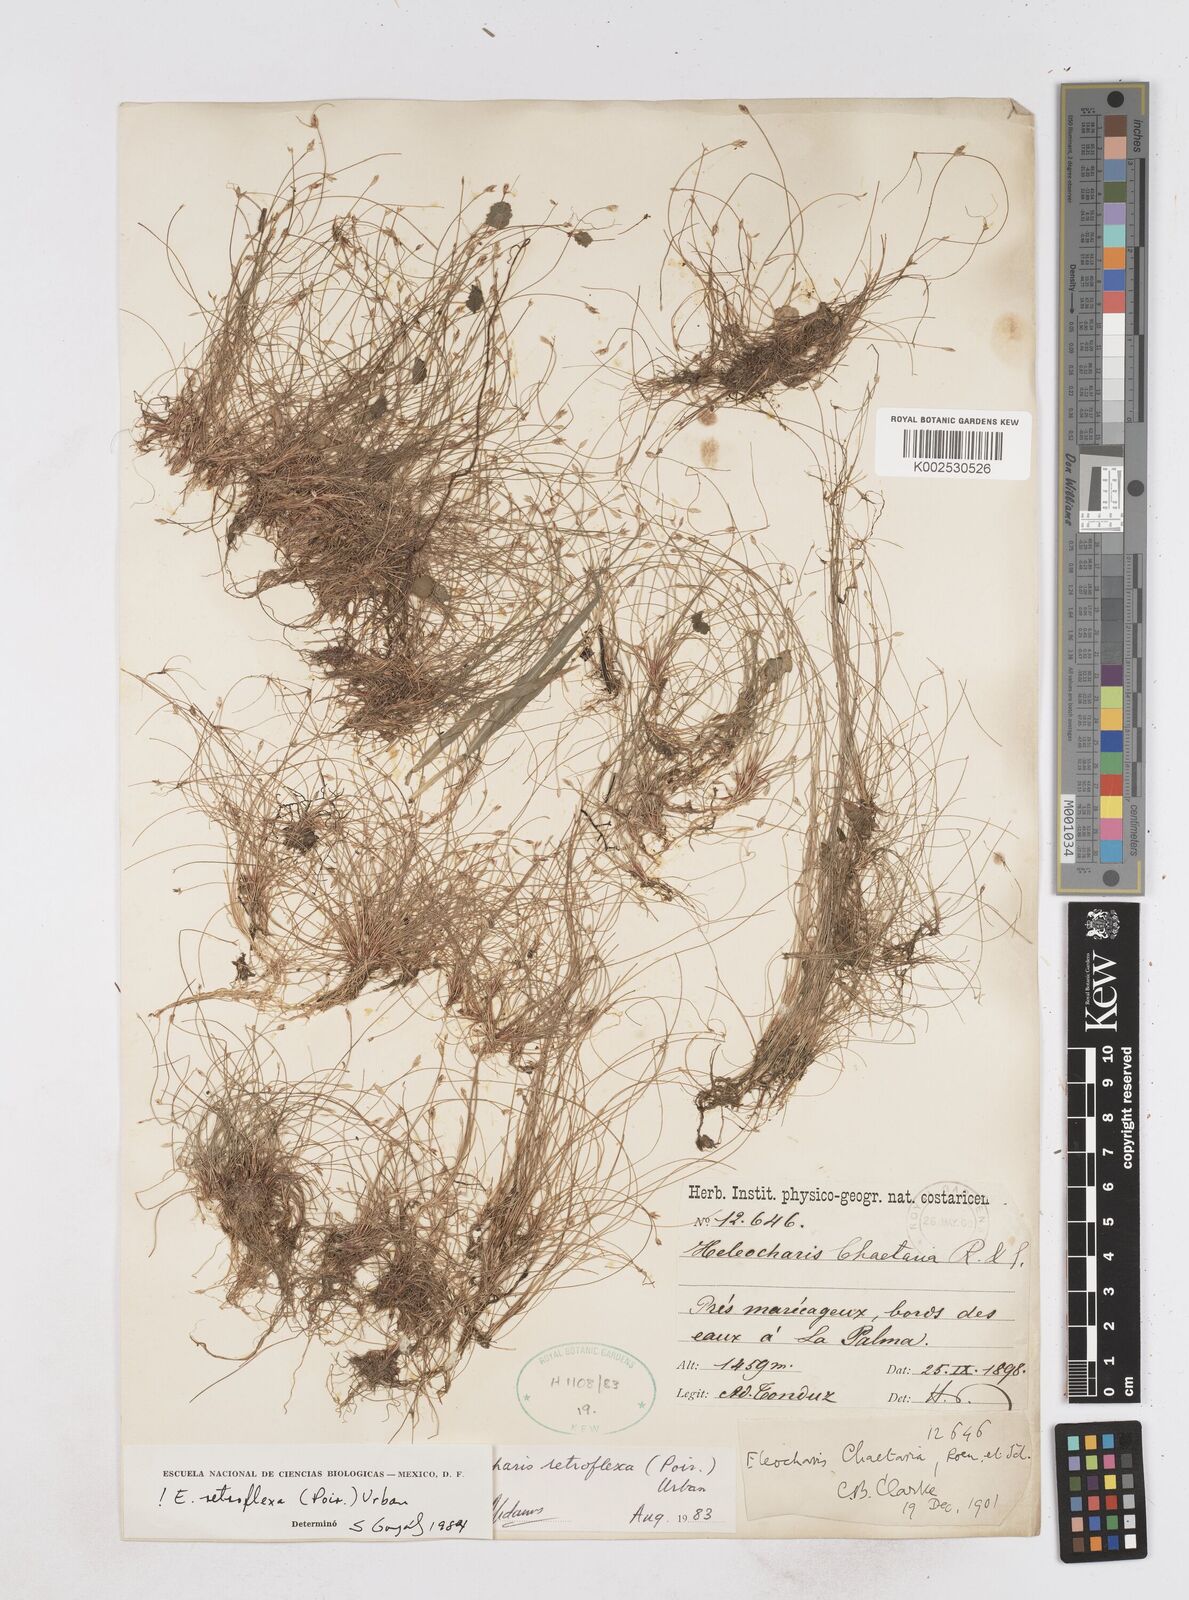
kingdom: Plantae
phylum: Tracheophyta
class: Liliopsida
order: Poales
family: Cyperaceae
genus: Eleocharis
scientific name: Eleocharis retroflexa
